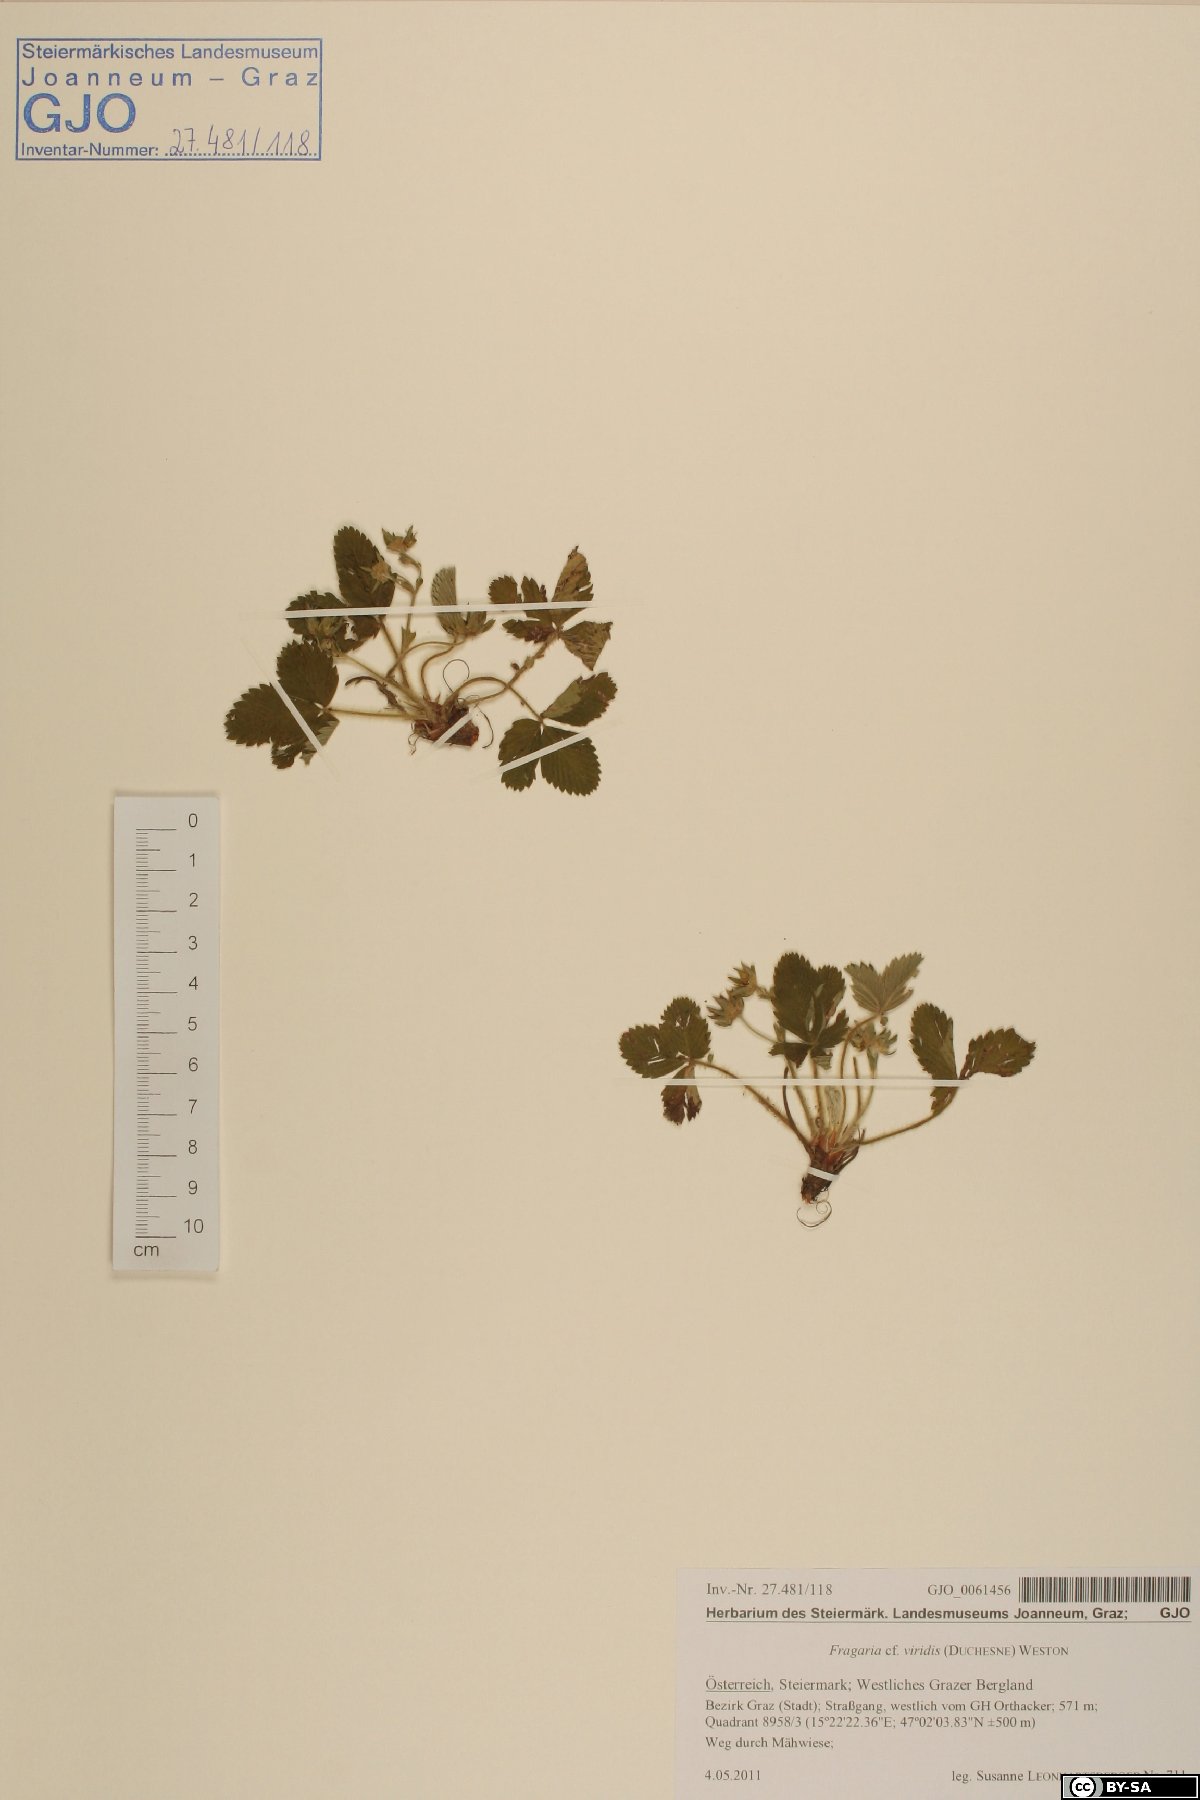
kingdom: Plantae
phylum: Tracheophyta
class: Magnoliopsida
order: Rosales
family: Rosaceae
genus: Fragaria
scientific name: Fragaria viridis
